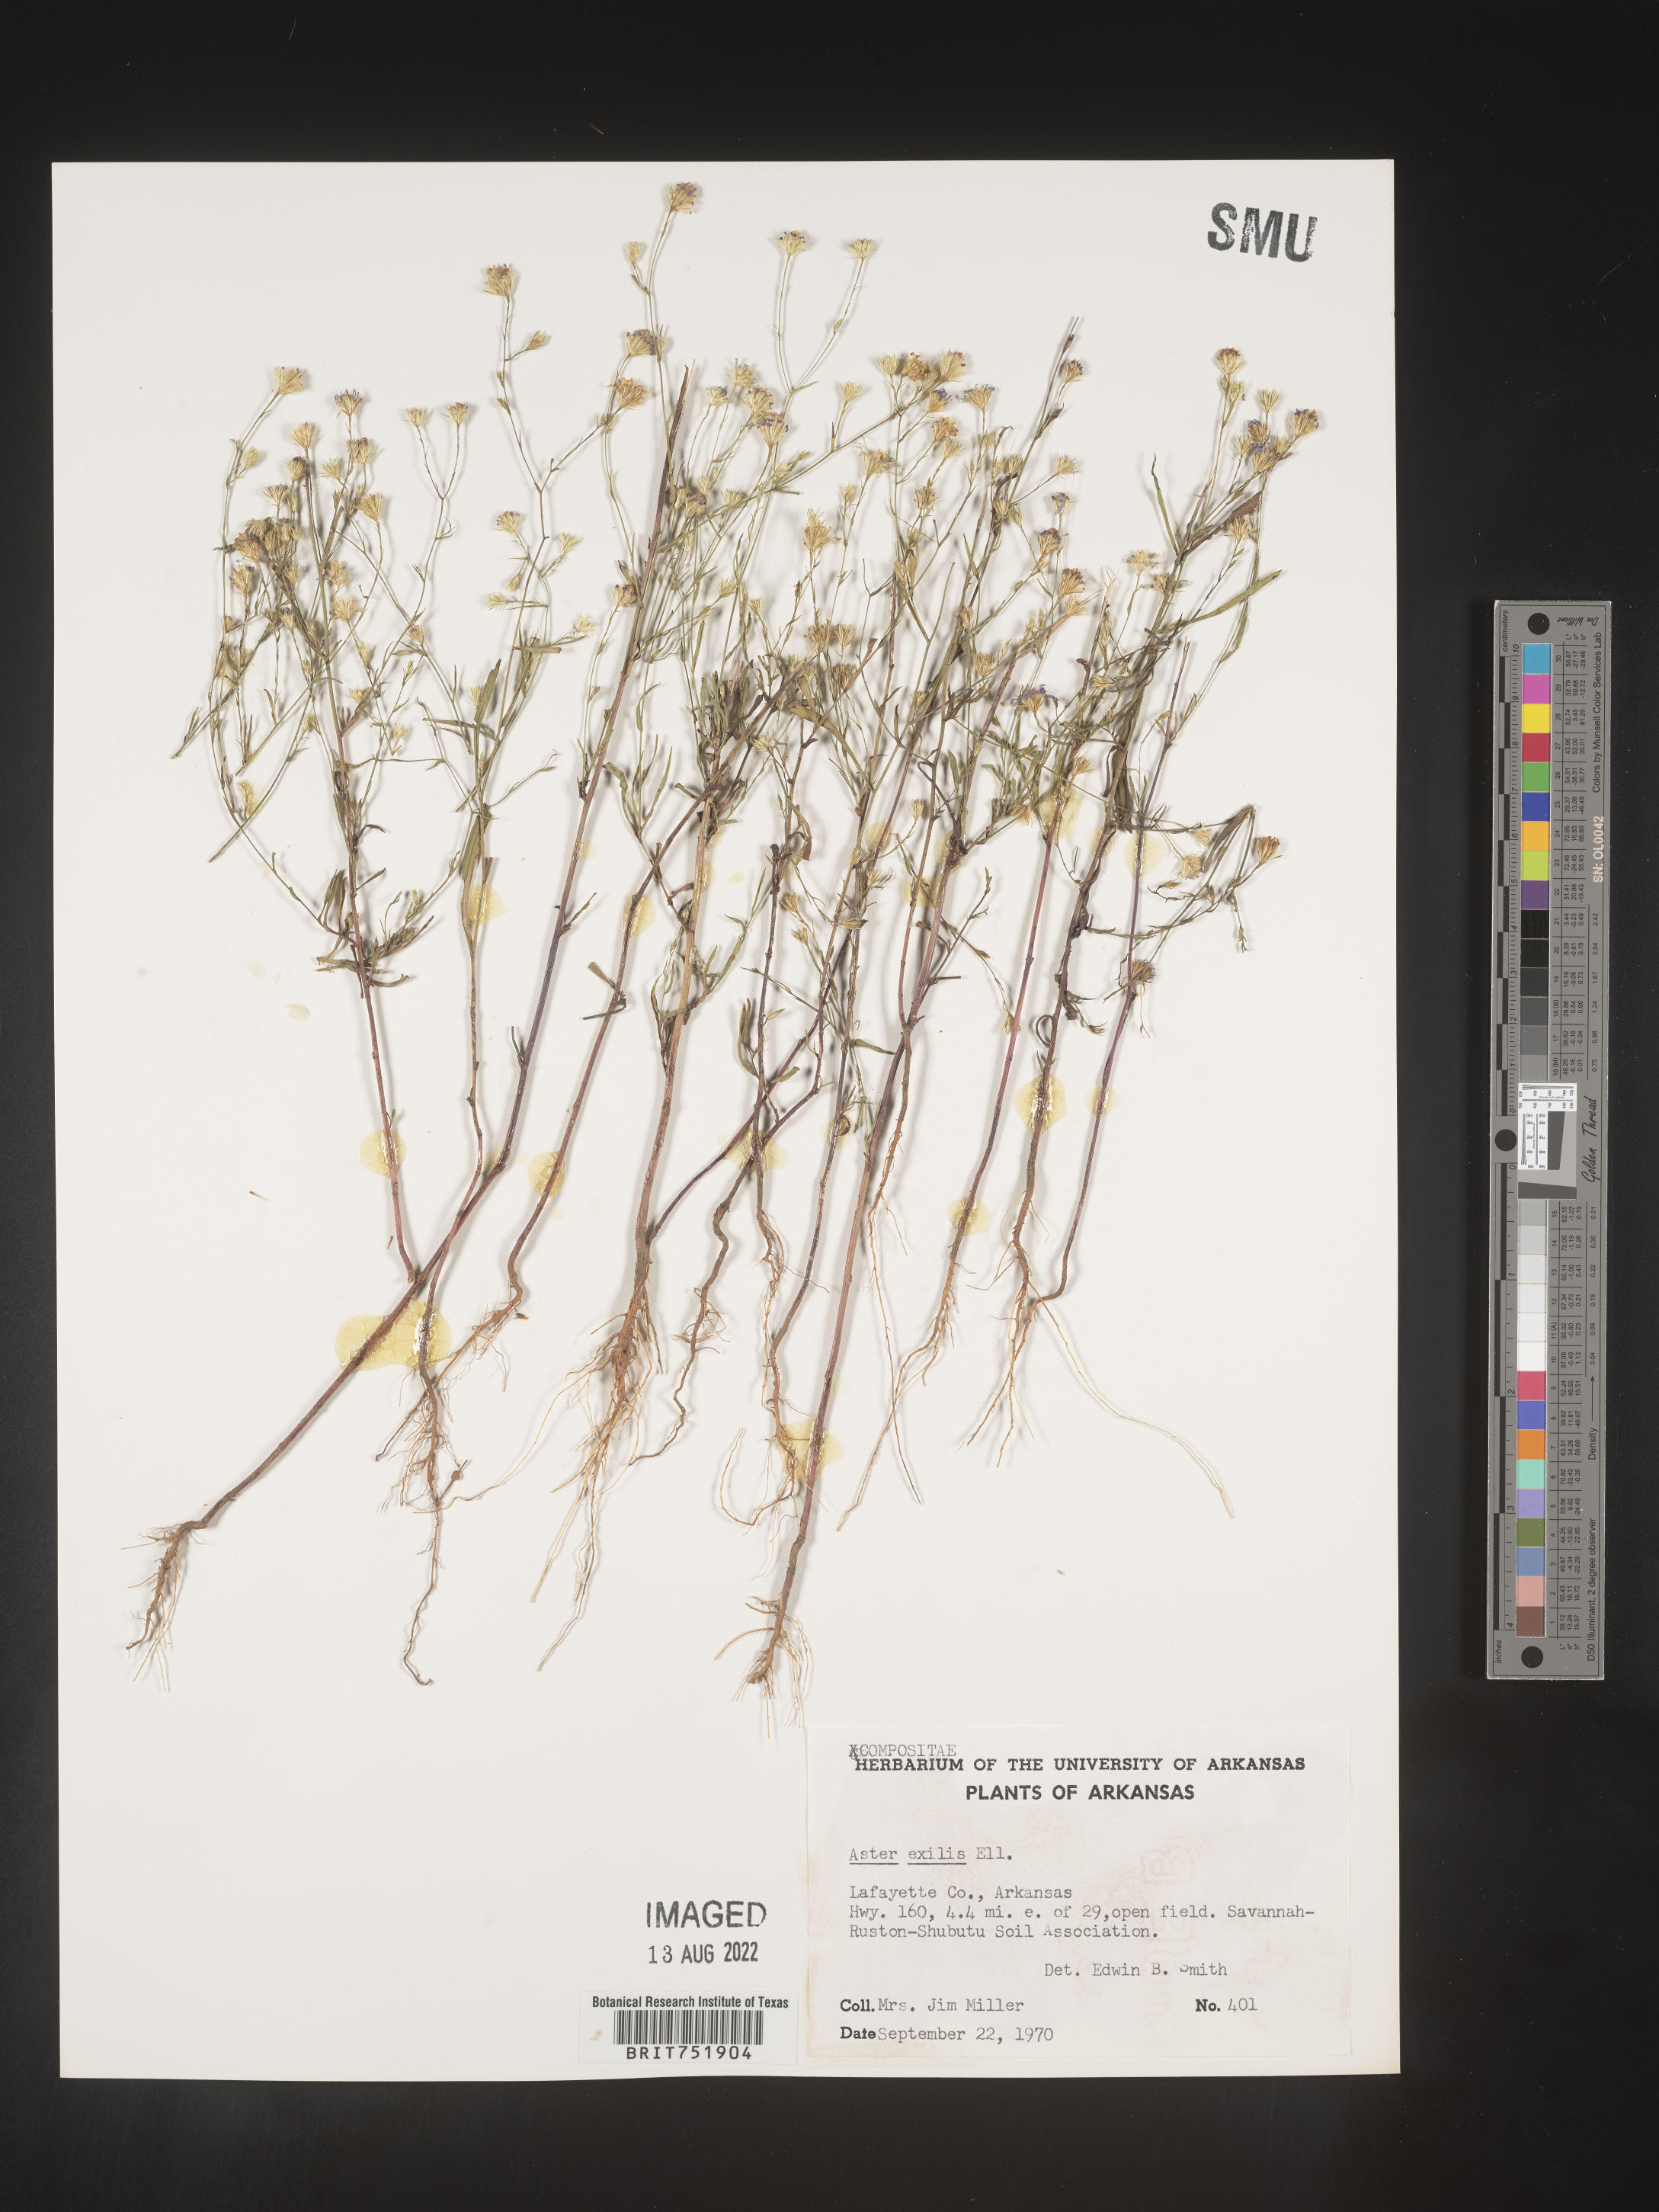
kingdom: Plantae
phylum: Tracheophyta
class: Magnoliopsida
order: Asterales
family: Asteraceae
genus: Symphyotrichum
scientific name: Symphyotrichum divaricatum
